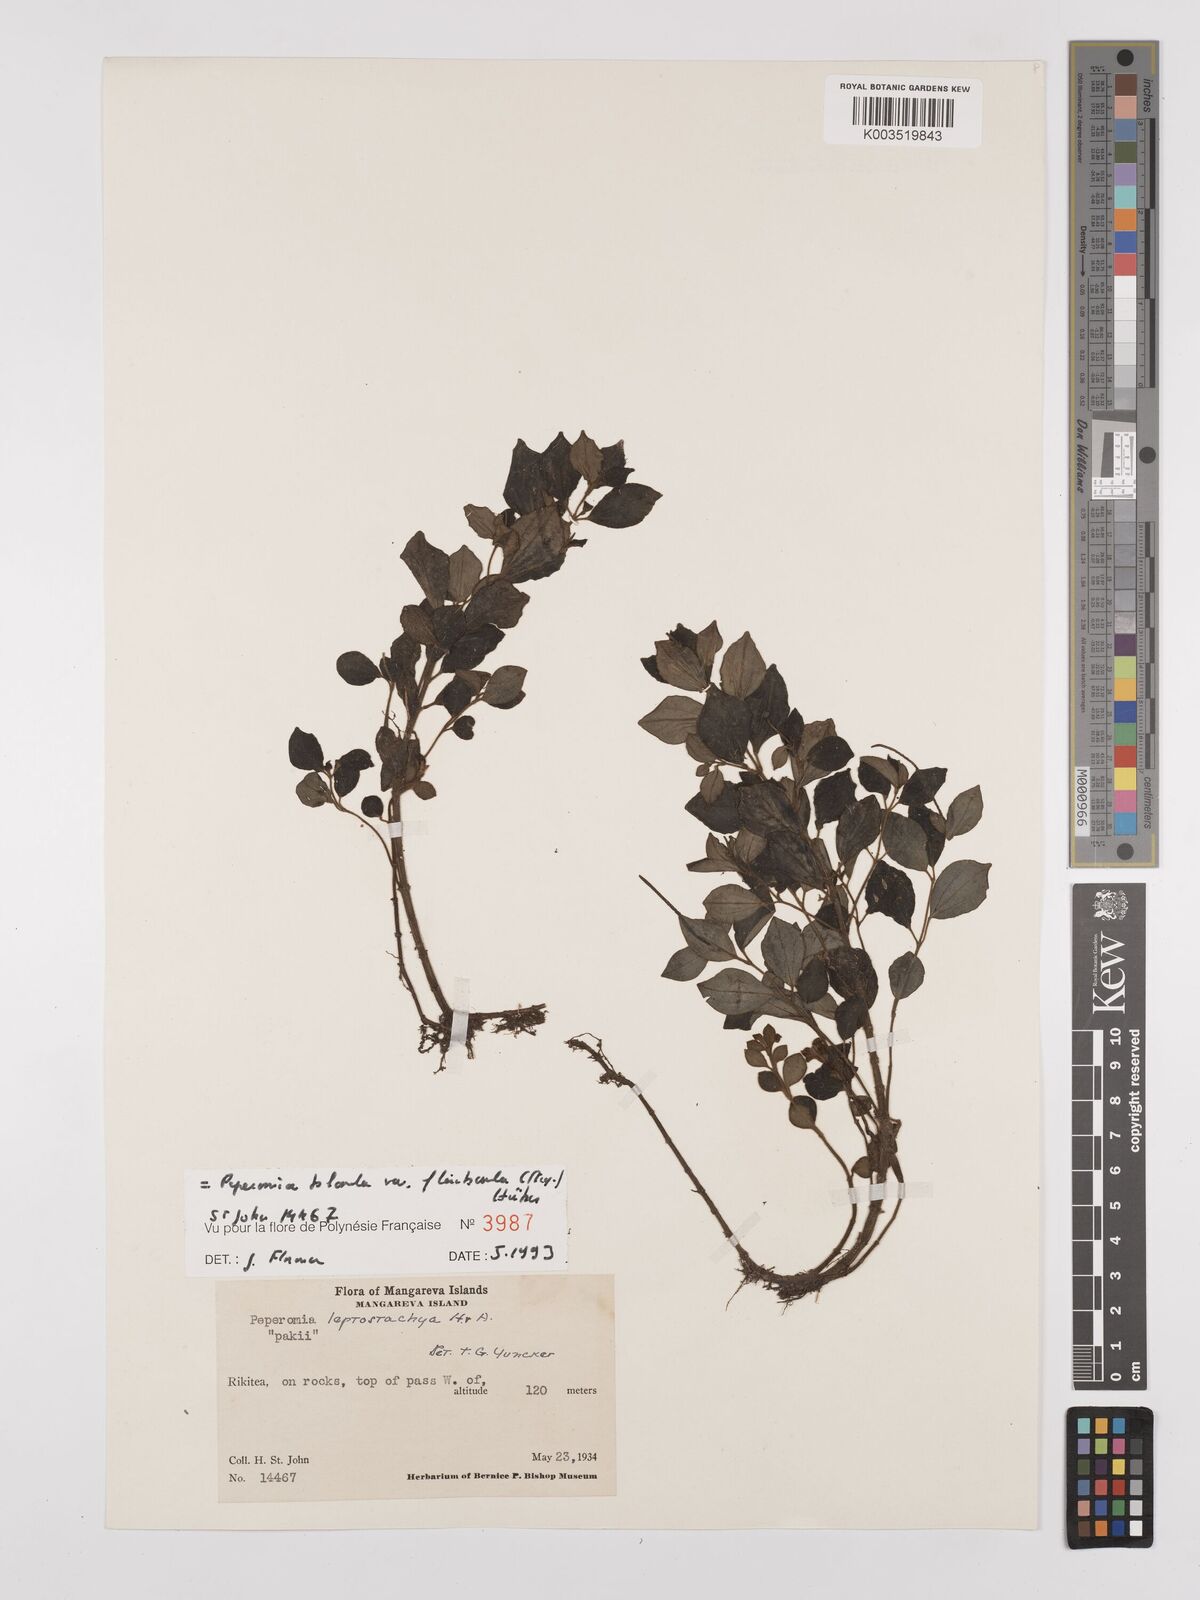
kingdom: Plantae
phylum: Tracheophyta
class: Magnoliopsida
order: Piperales
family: Piperaceae
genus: Peperomia
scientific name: Peperomia leptostachya
